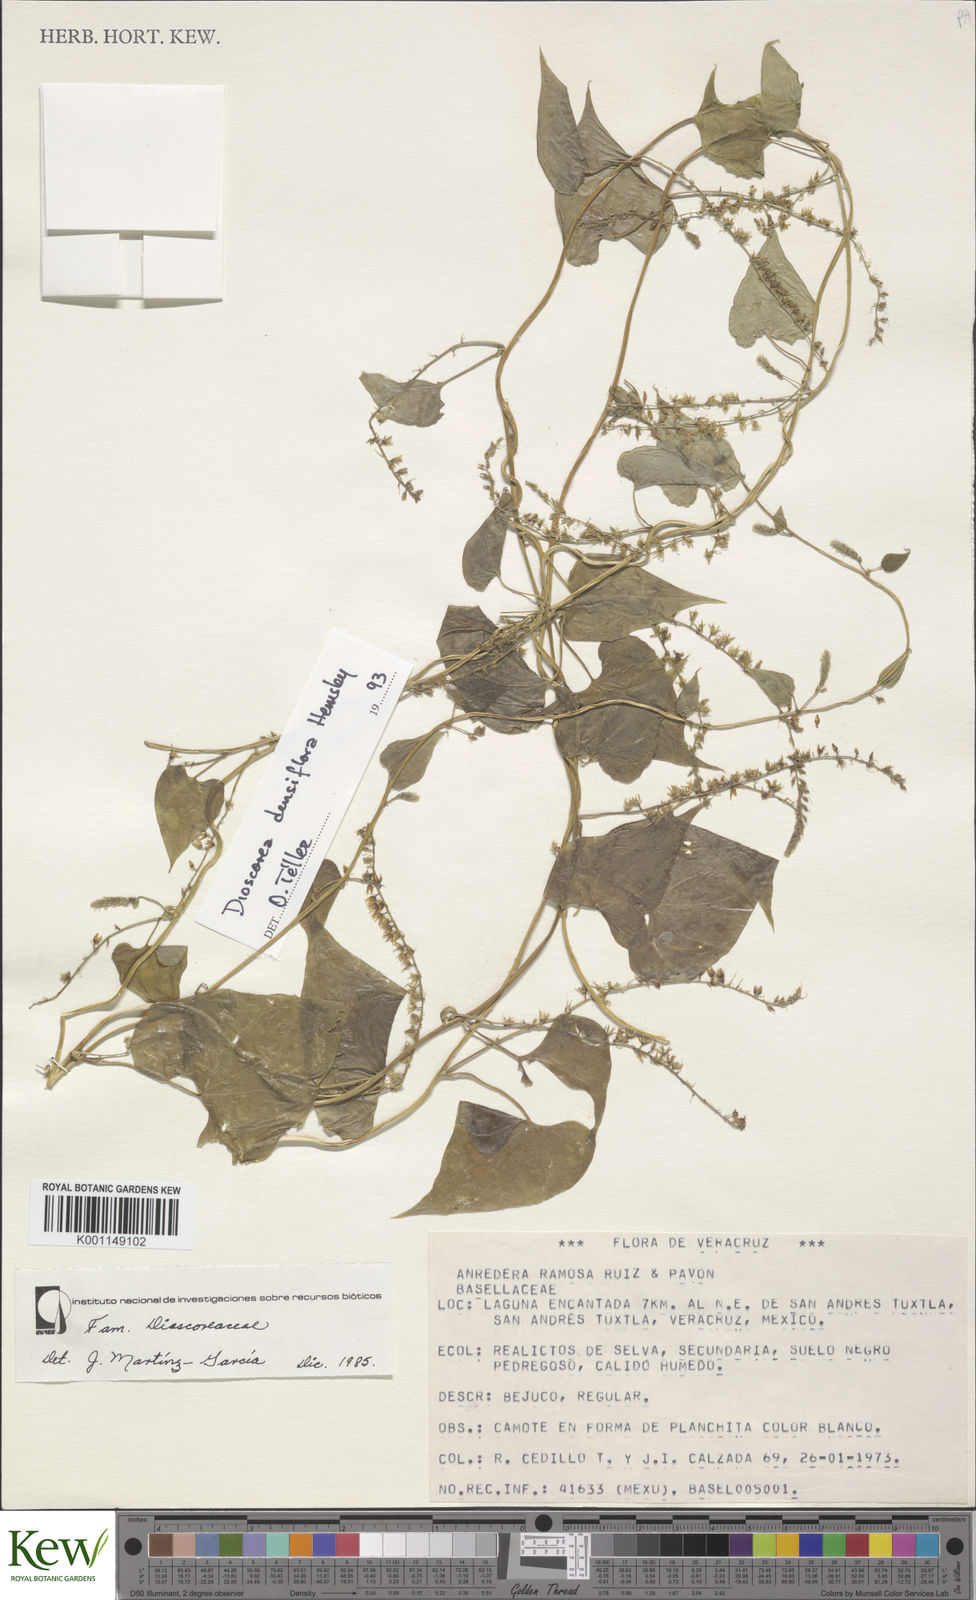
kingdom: Plantae
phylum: Tracheophyta
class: Liliopsida
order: Dioscoreales
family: Dioscoreaceae
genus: Dioscorea
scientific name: Dioscorea
